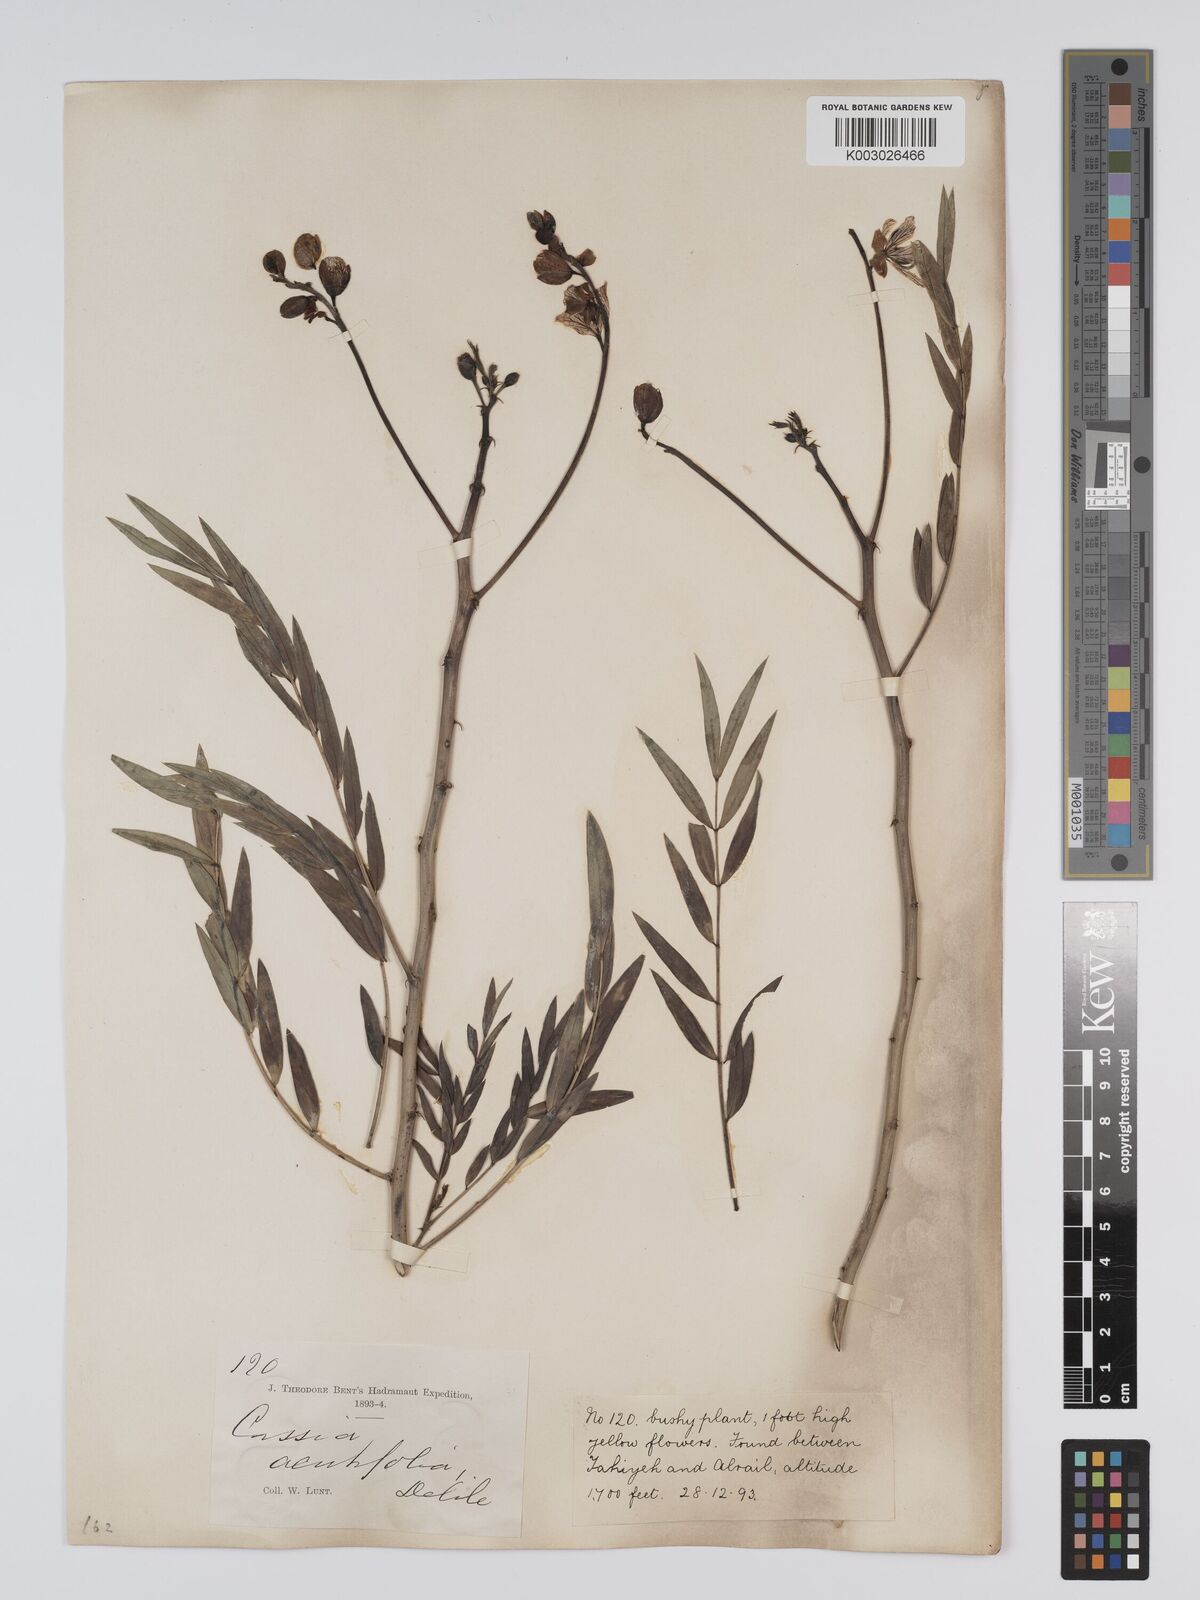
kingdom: Plantae
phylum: Tracheophyta
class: Magnoliopsida
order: Fabales
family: Fabaceae
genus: Senna
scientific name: Senna alexandrina
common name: True senna
